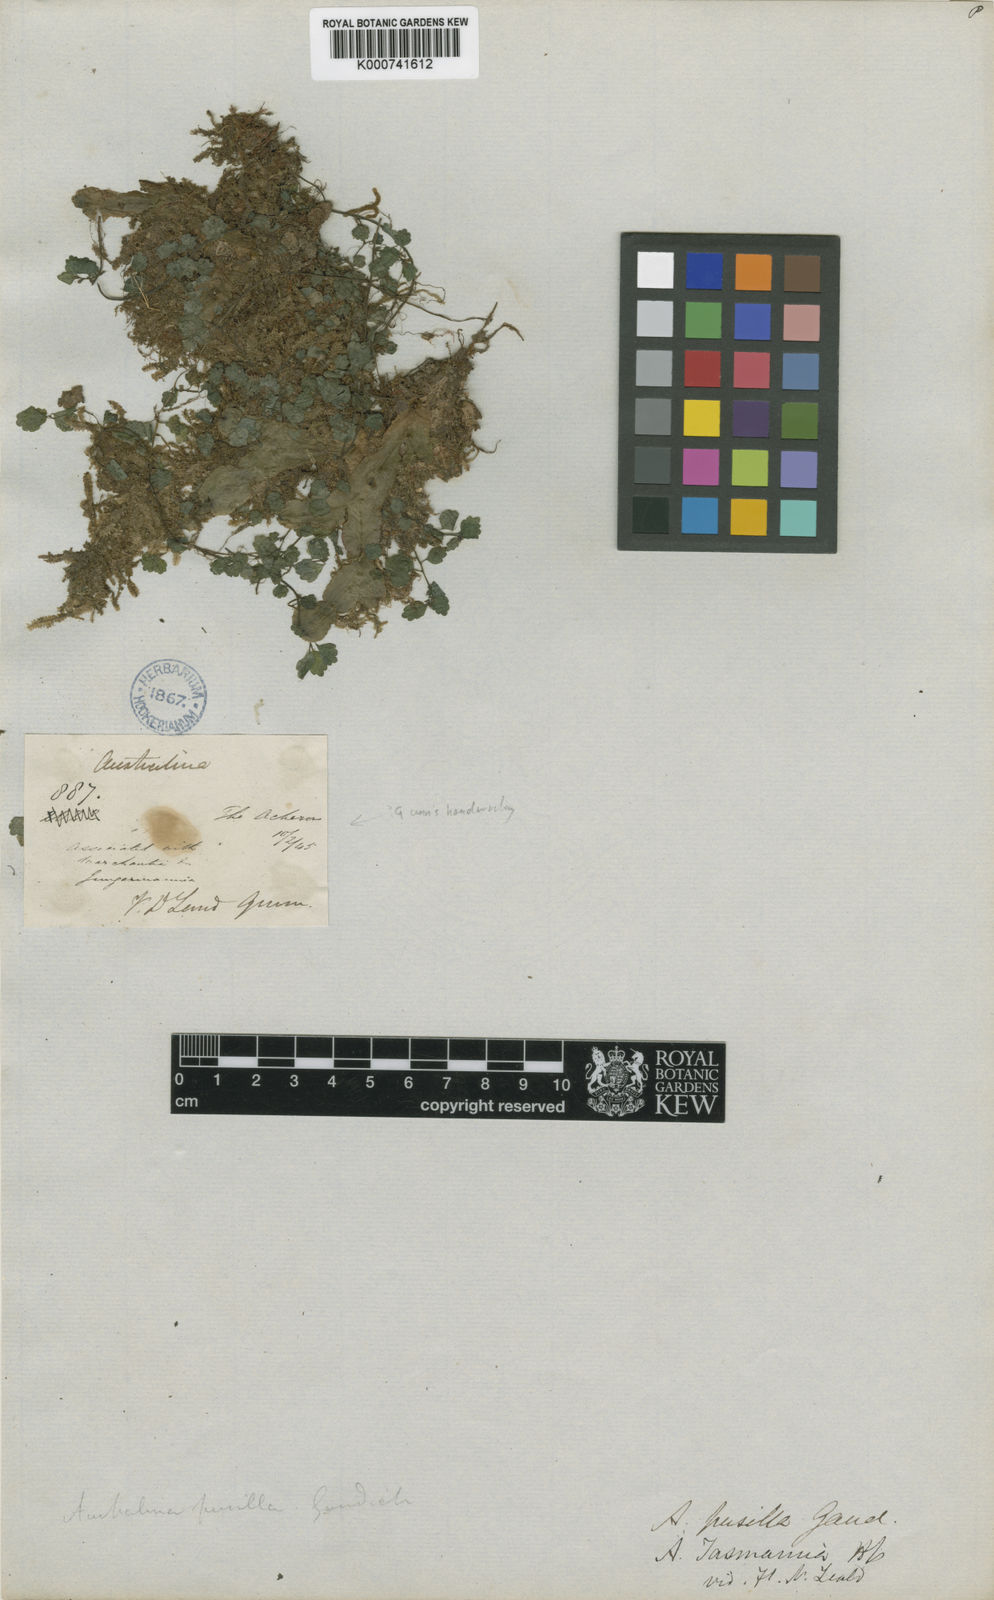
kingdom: Plantae
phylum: Tracheophyta
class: Magnoliopsida
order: Rosales
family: Urticaceae
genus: Australina
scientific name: Australina
